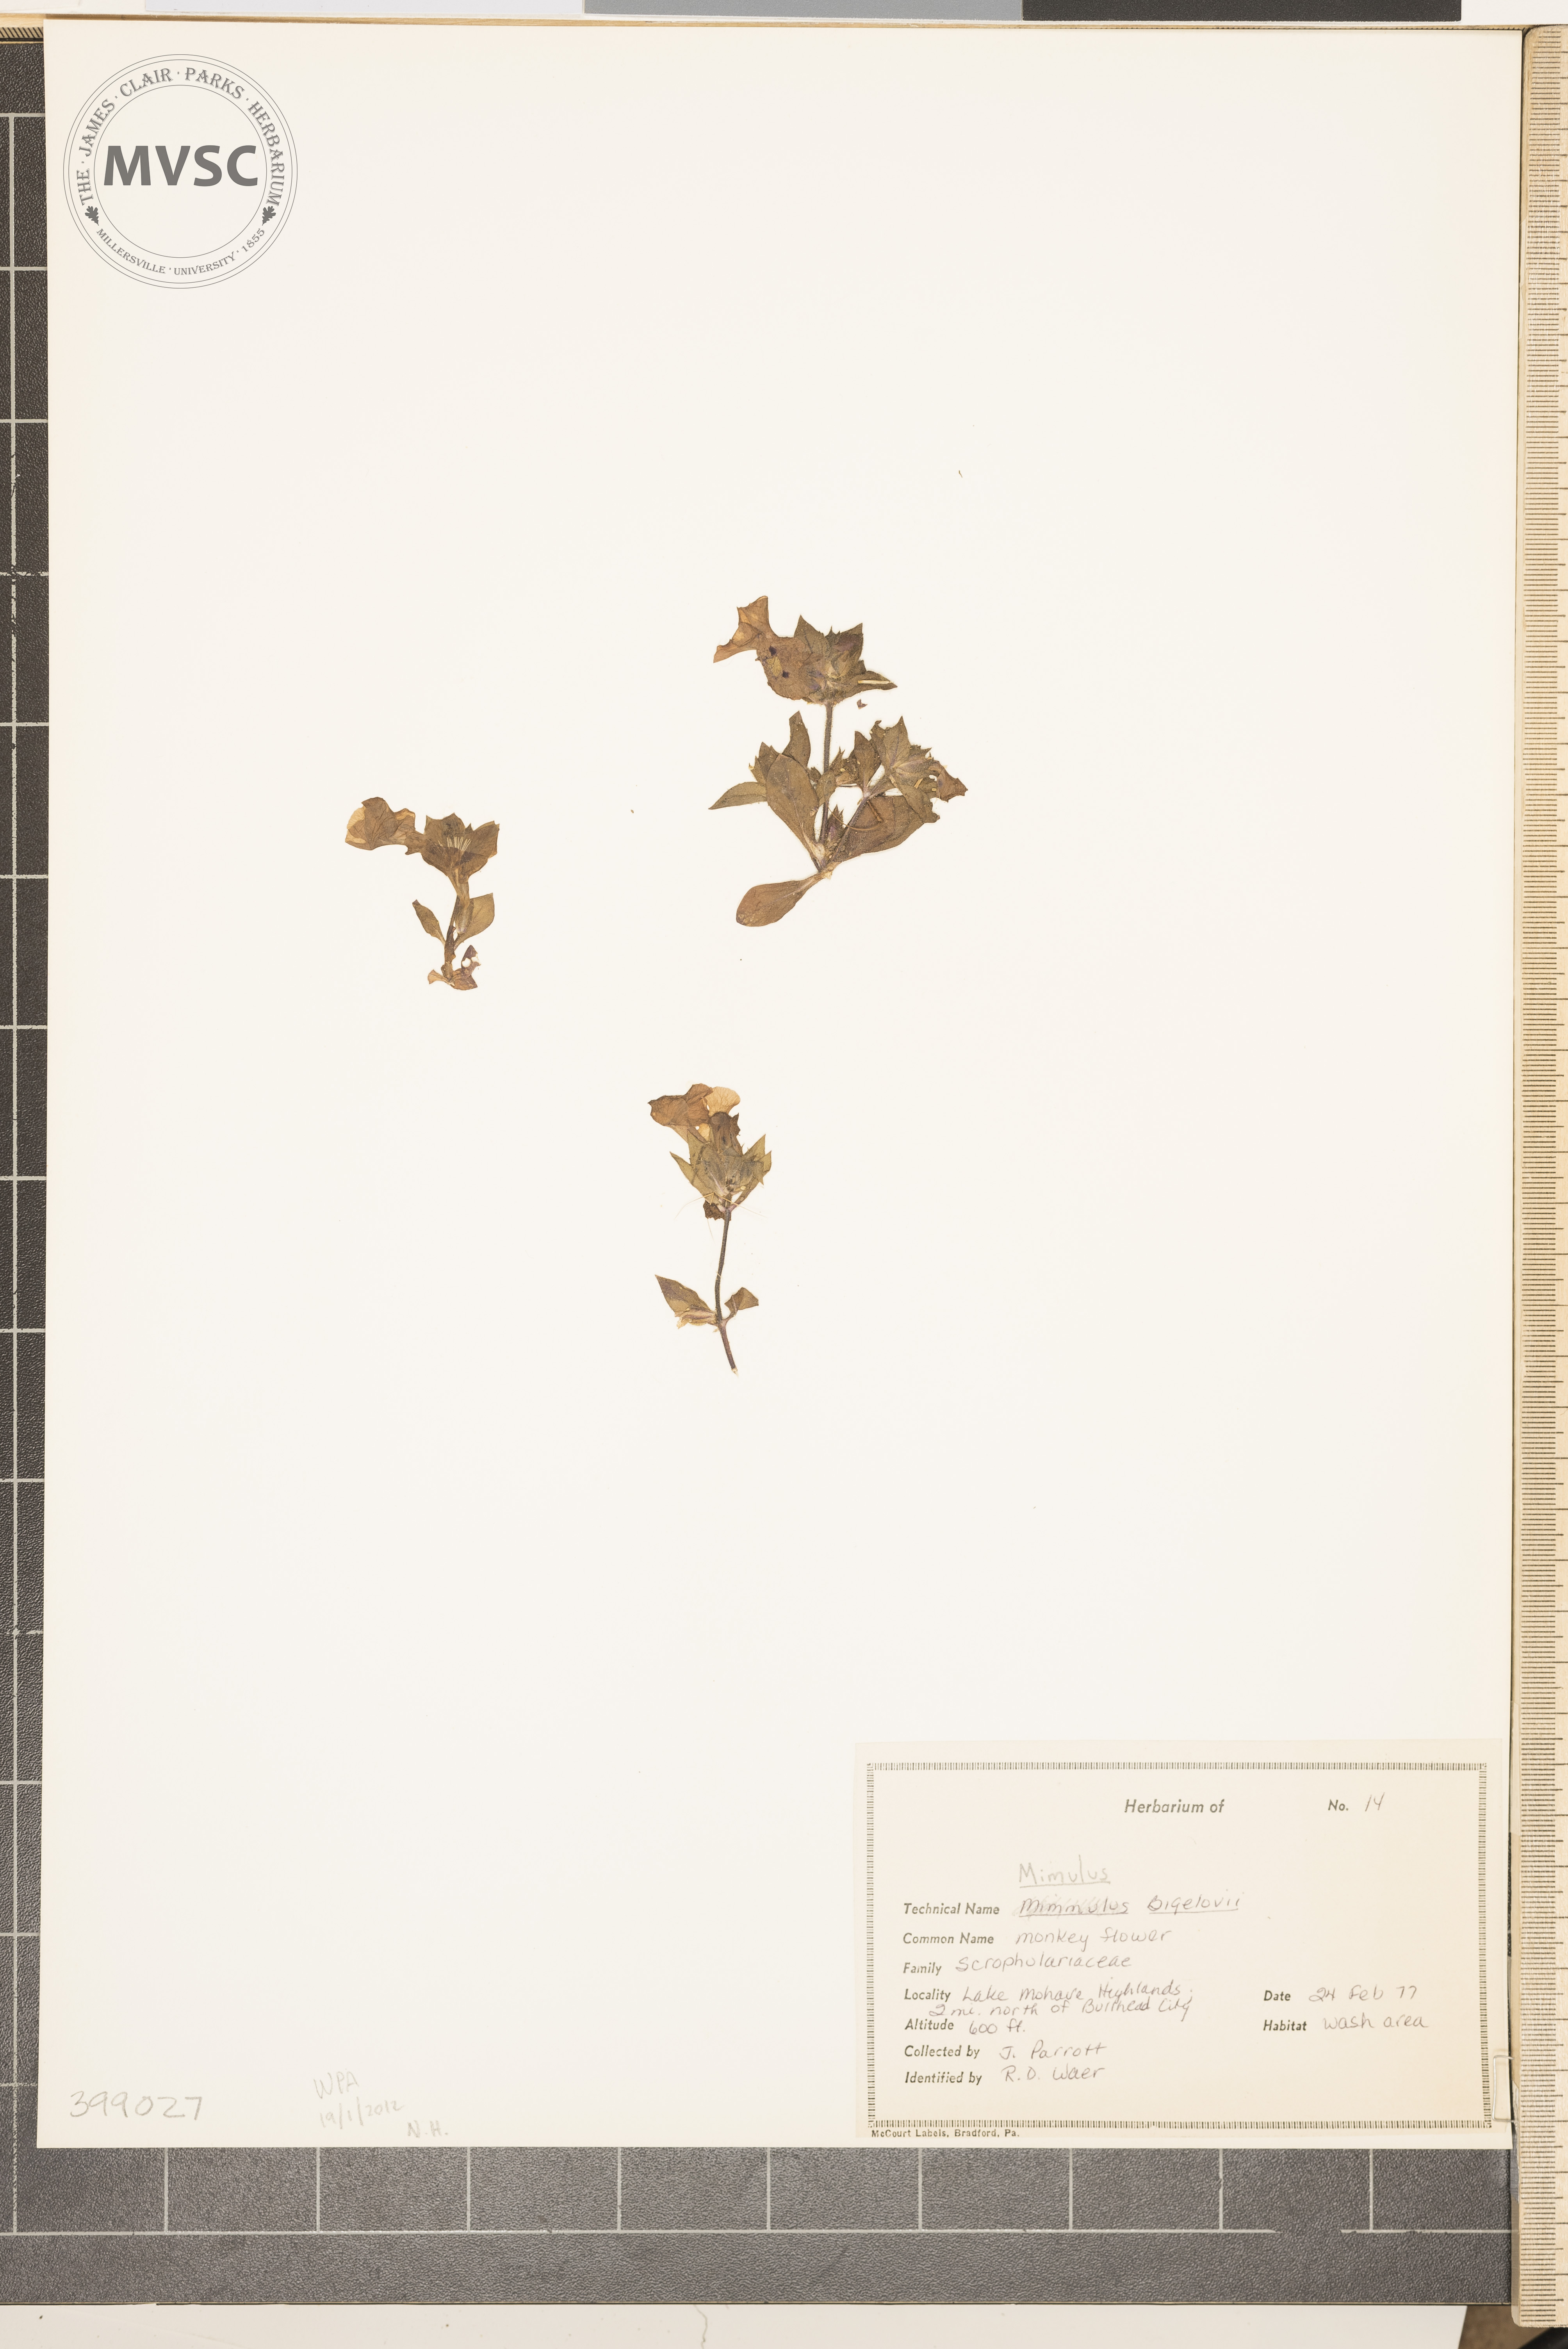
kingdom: Plantae
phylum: Tracheophyta
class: Magnoliopsida
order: Lamiales
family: Phrymaceae
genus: Diplacus
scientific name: Diplacus bigelovii
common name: Winged monkey-flower
